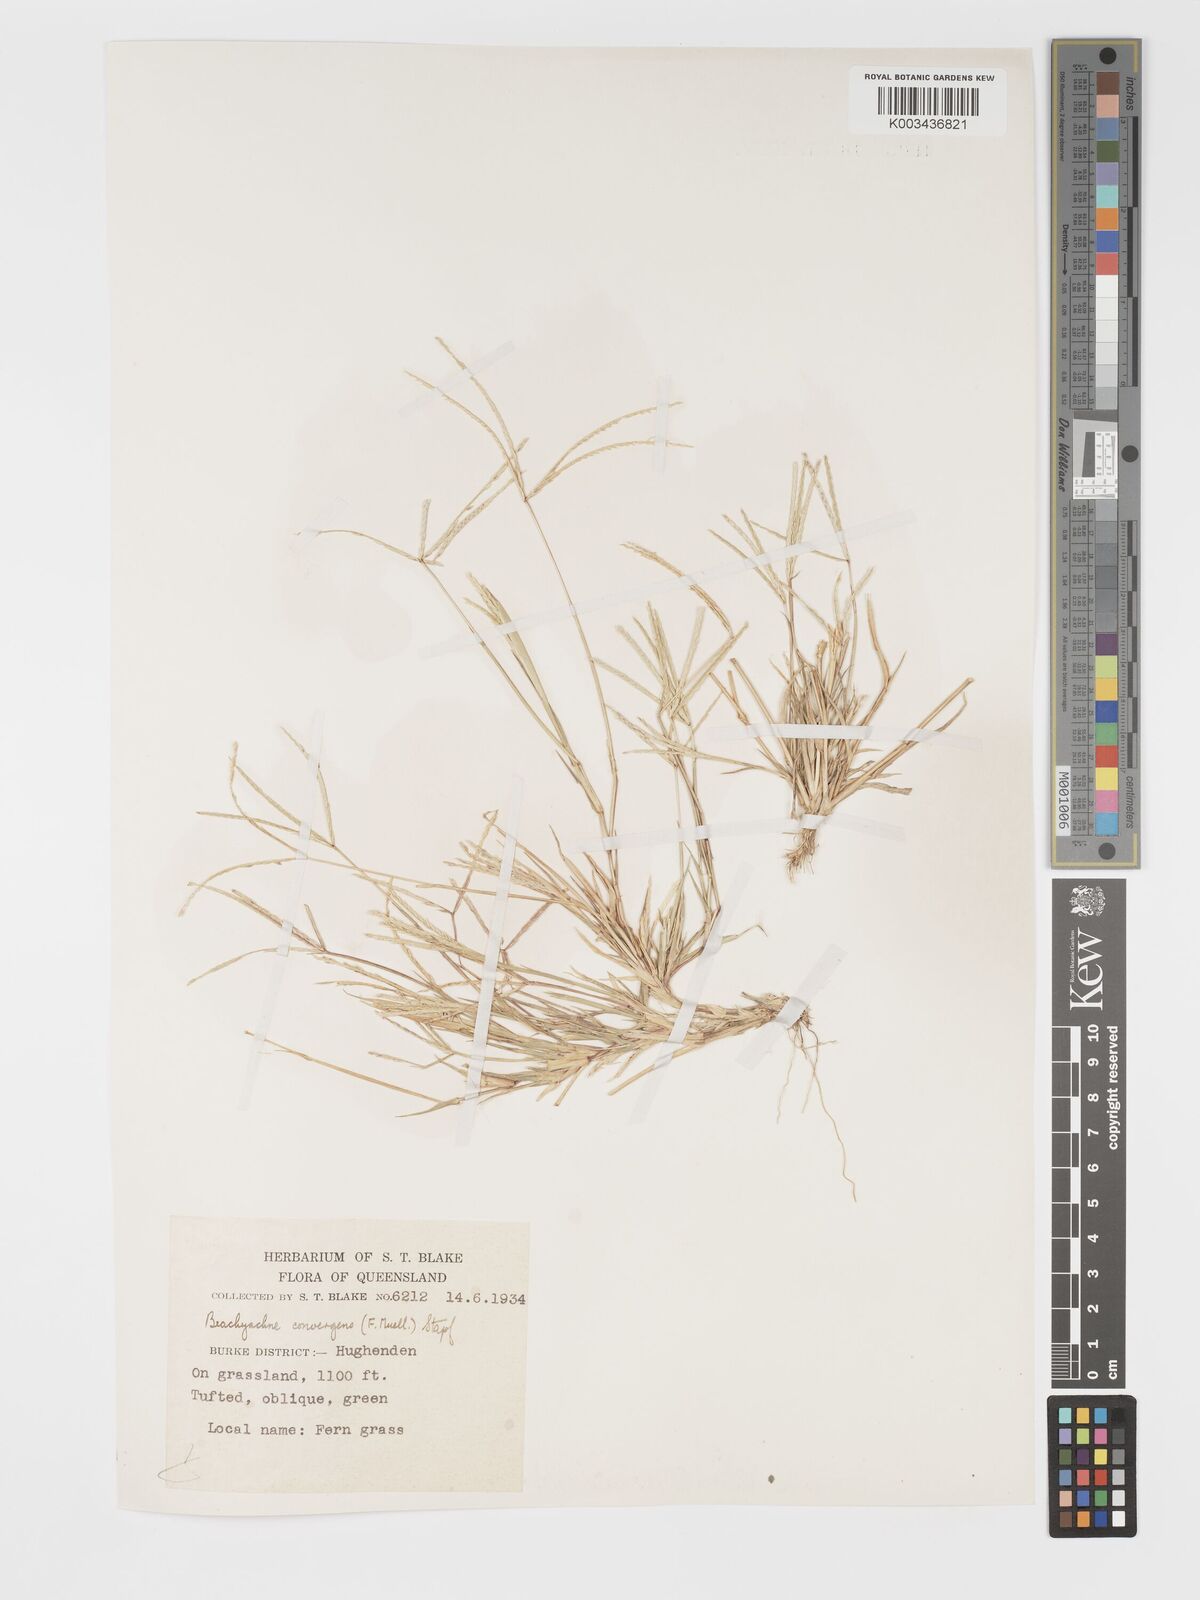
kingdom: Plantae
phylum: Tracheophyta
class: Liliopsida
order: Poales
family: Poaceae
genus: Cynodon
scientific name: Cynodon convergens
